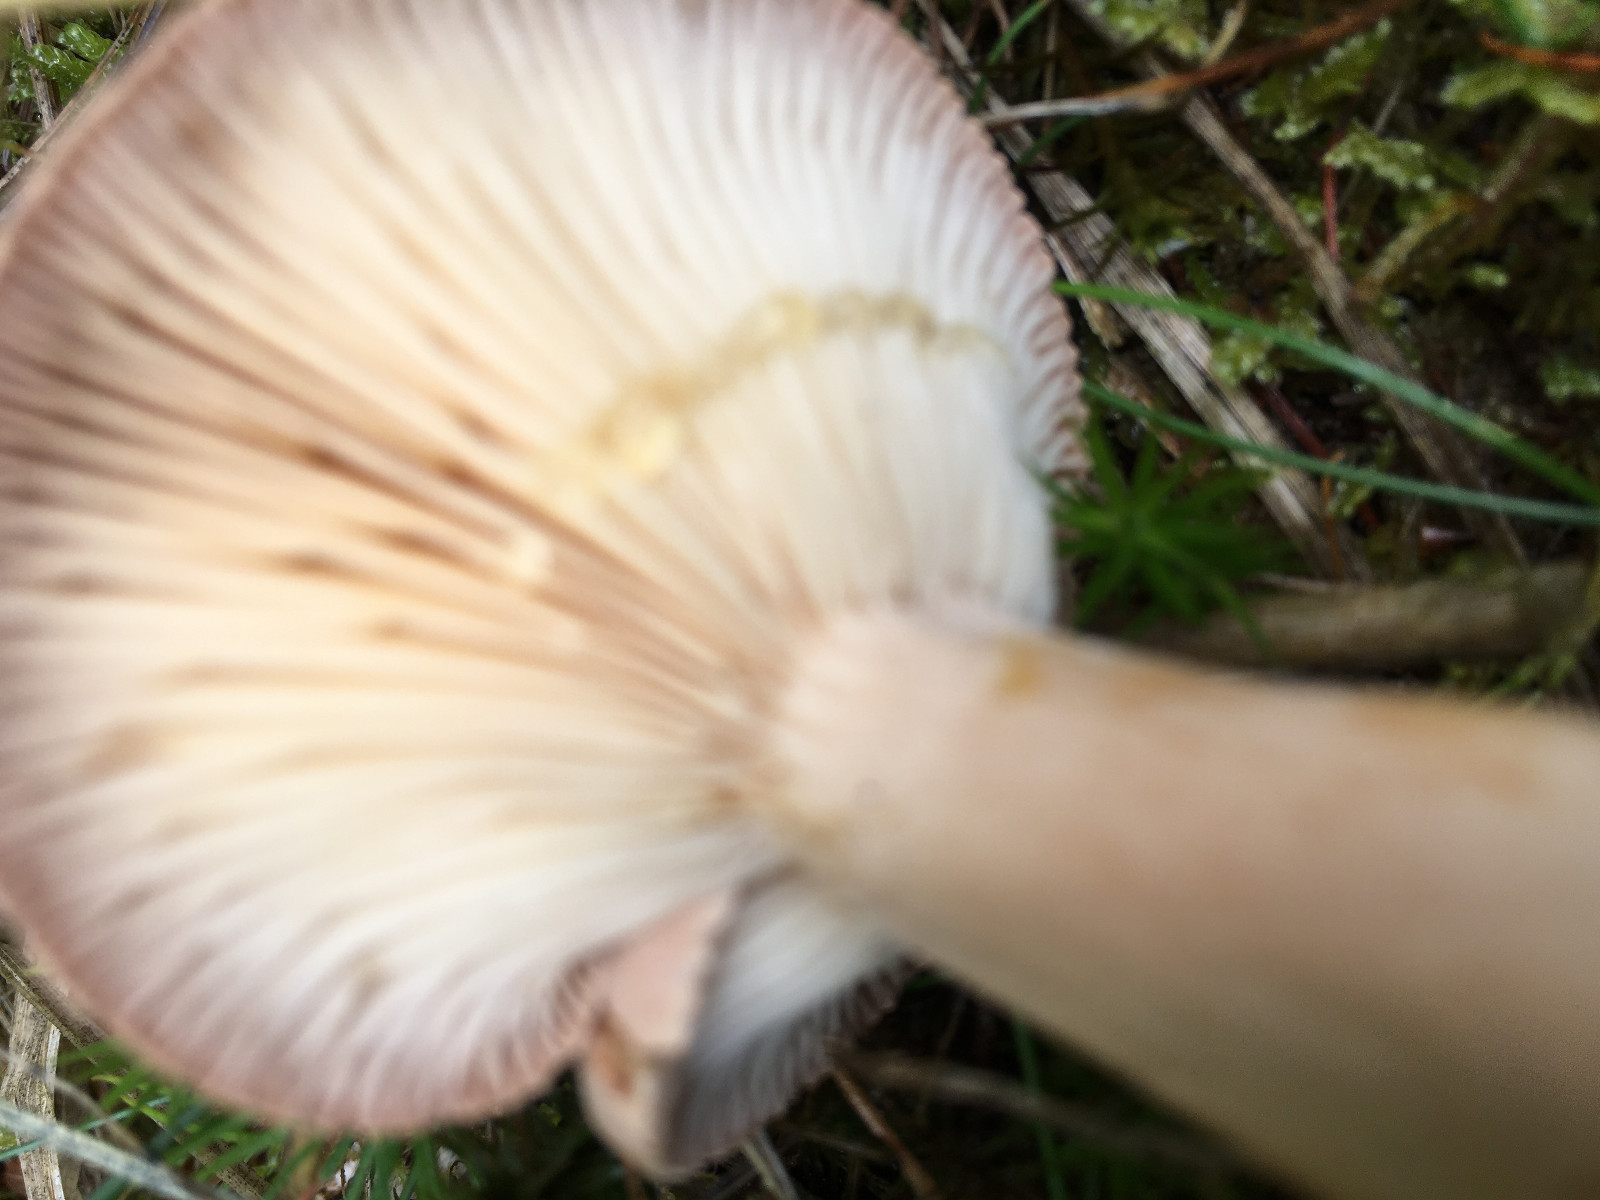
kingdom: Fungi
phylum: Basidiomycota
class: Agaricomycetes
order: Russulales
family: Russulaceae
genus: Lactarius
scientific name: Lactarius helvus
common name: mose-mælkehat
